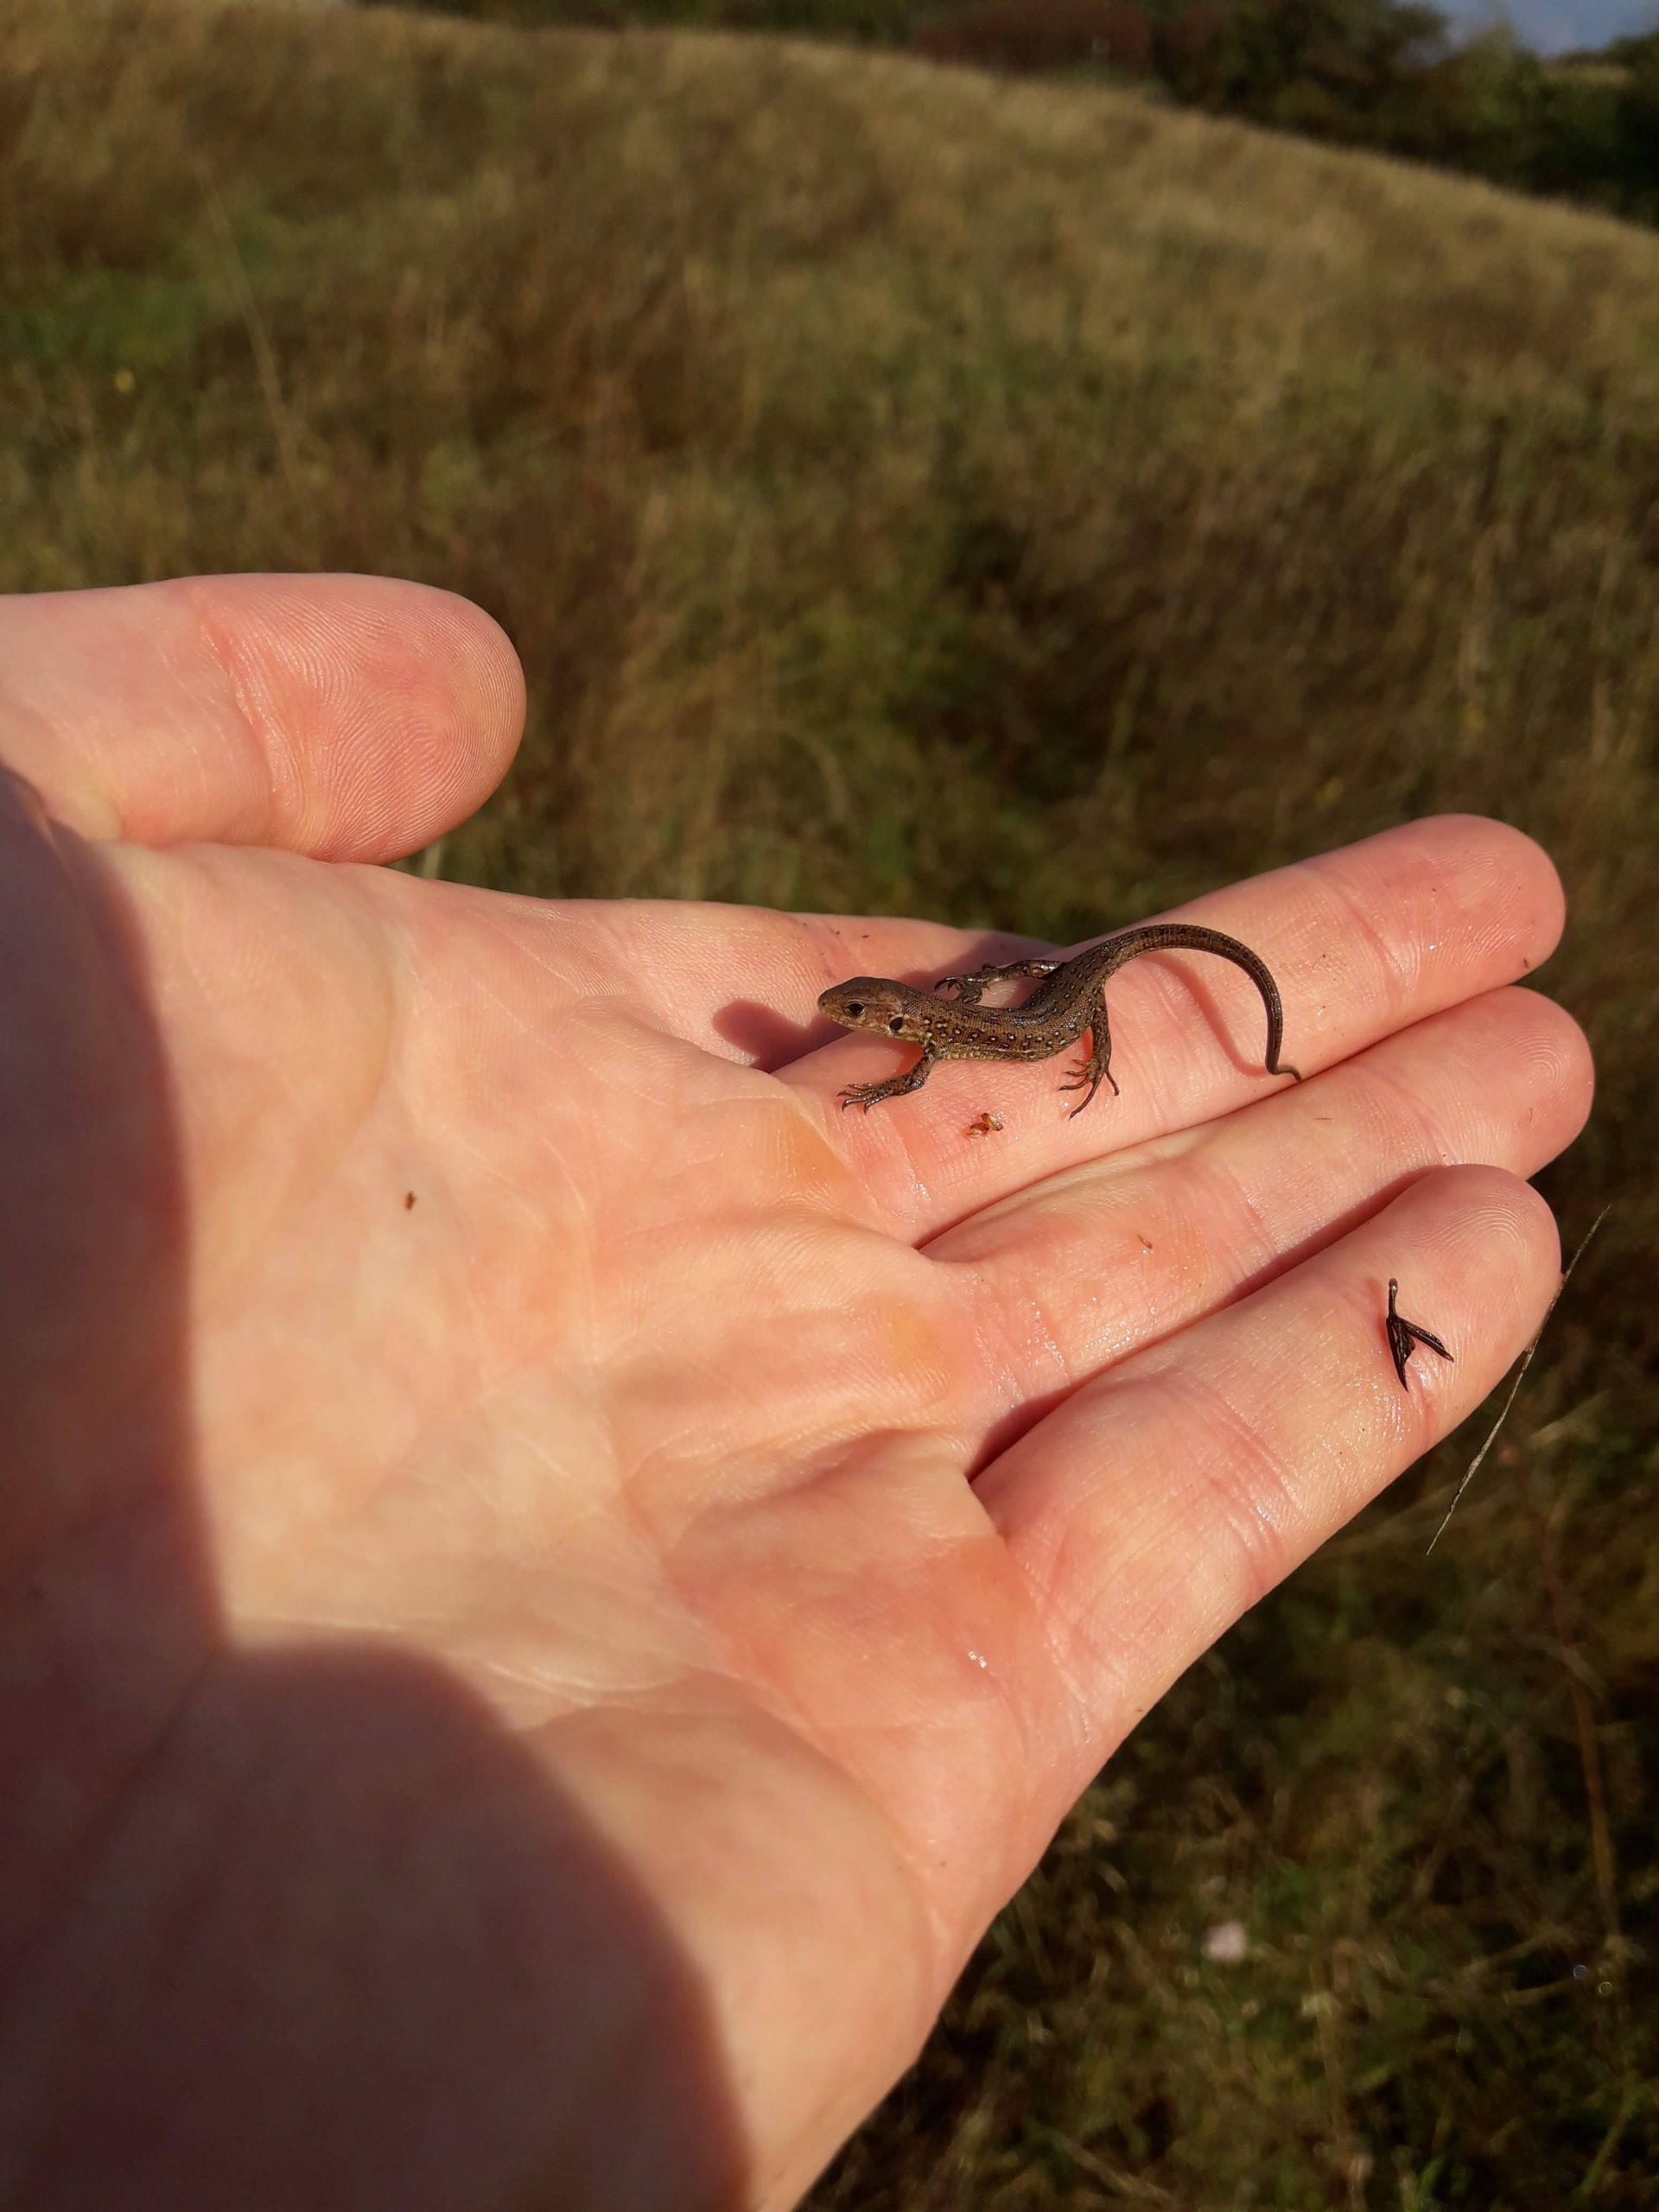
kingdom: Animalia
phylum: Chordata
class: Squamata
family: Lacertidae
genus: Lacerta
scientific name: Lacerta agilis
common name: Markfirben
